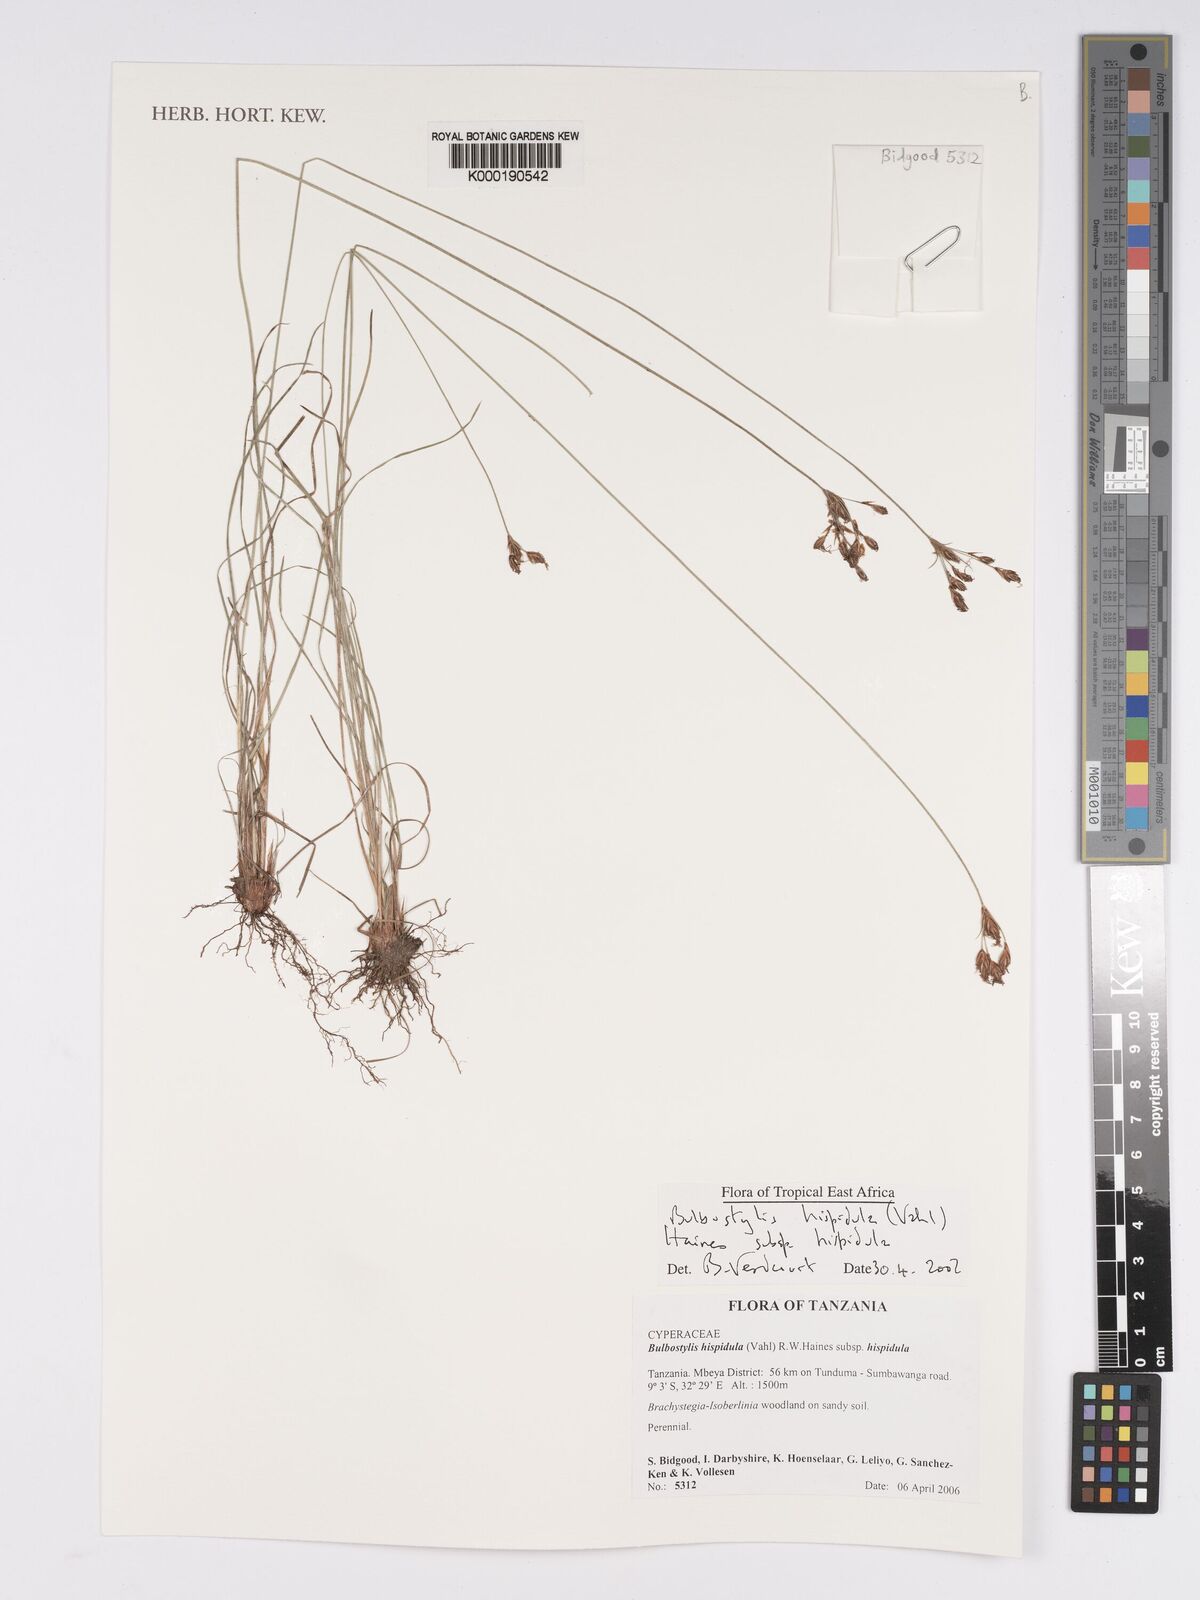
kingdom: Plantae
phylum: Tracheophyta
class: Liliopsida
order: Poales
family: Cyperaceae
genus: Bulbostylis
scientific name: Bulbostylis hispidula
